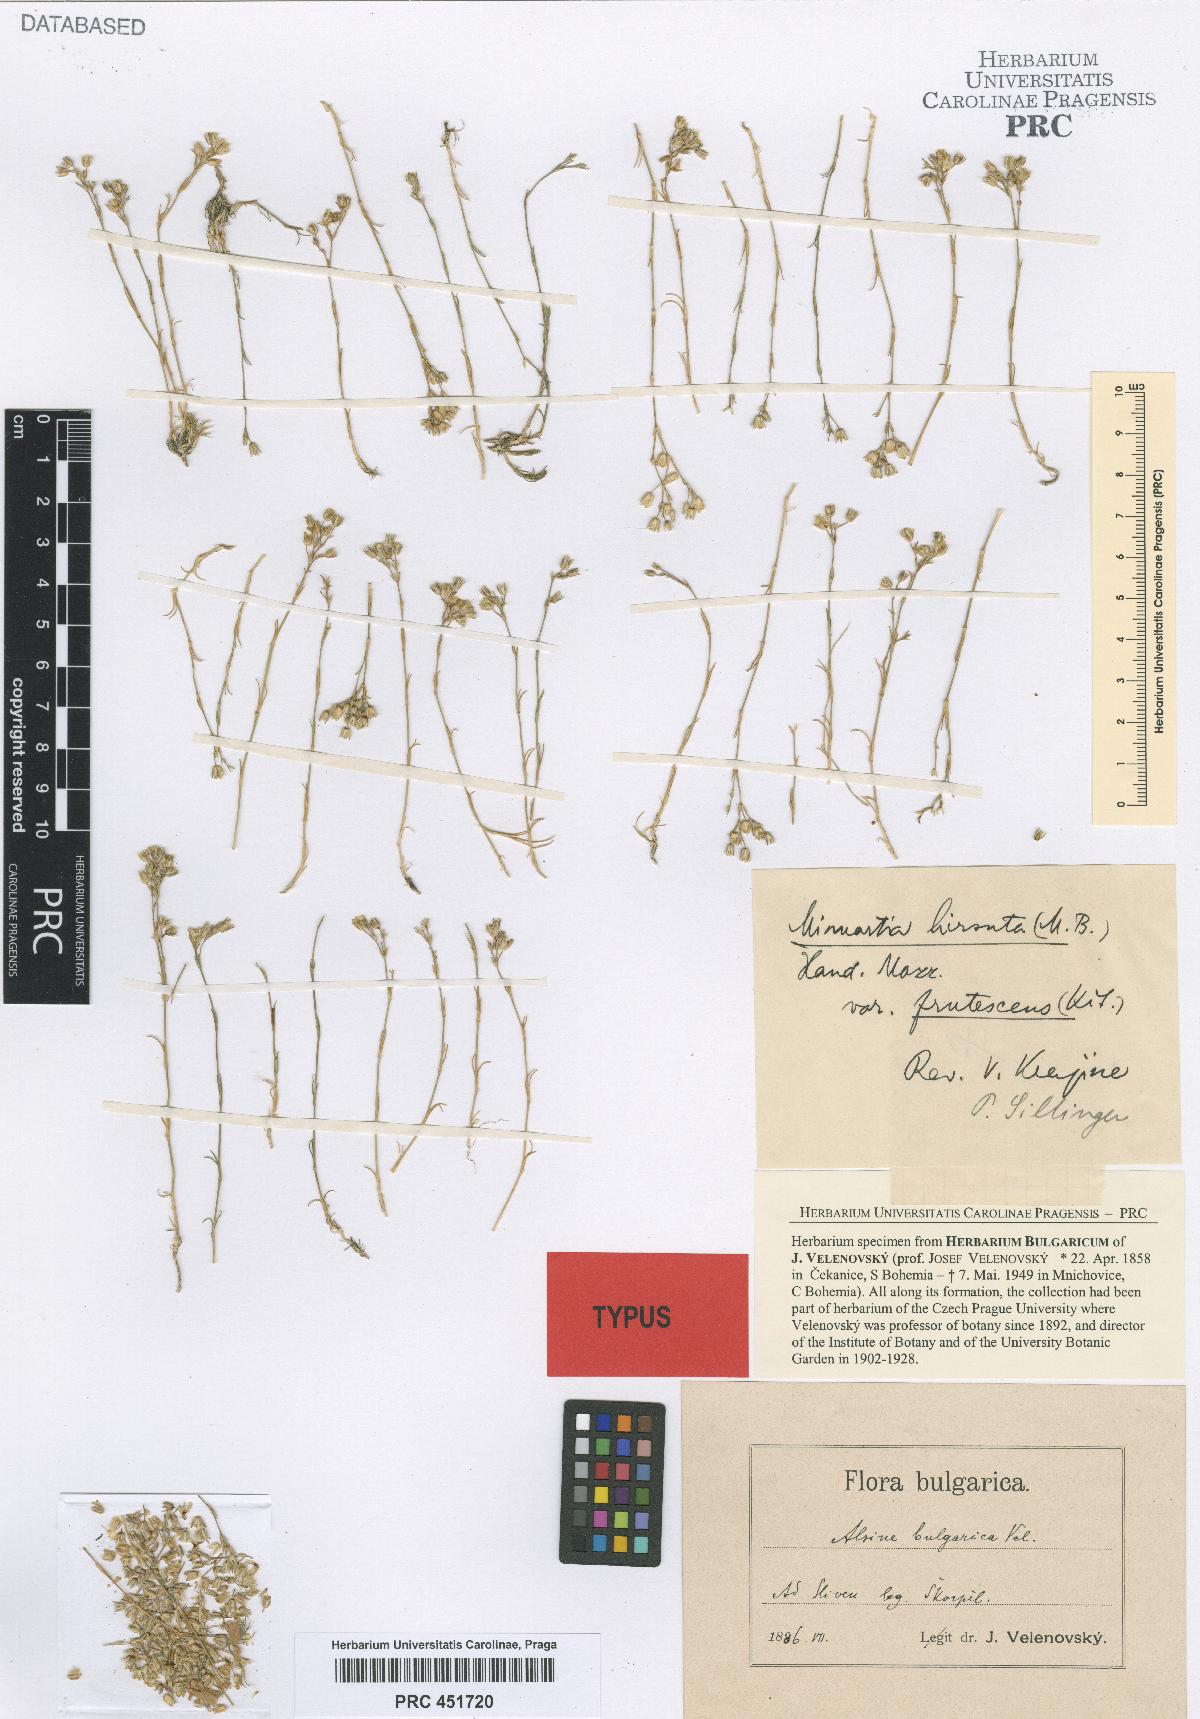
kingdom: Plantae
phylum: Tracheophyta
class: Magnoliopsida
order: Caryophyllales
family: Caryophyllaceae
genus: Minuartia
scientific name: Minuartia bulgarica
